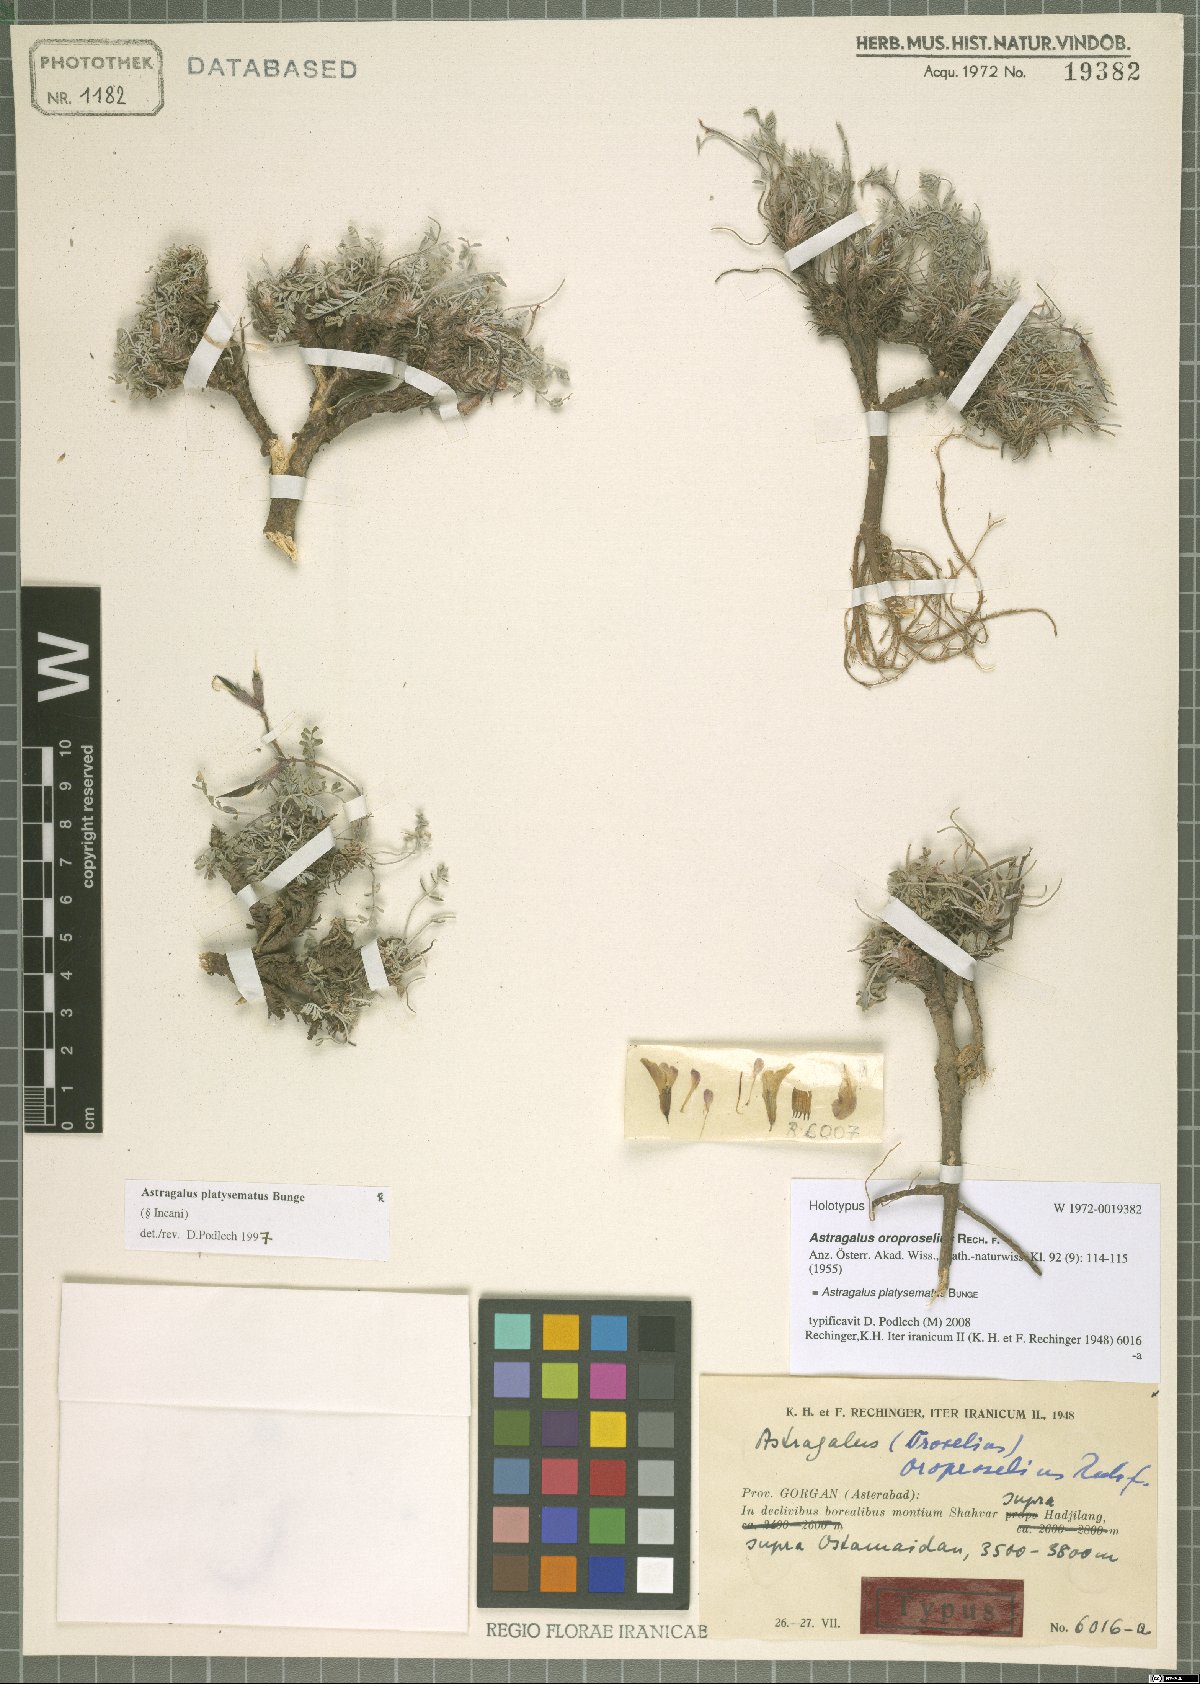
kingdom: Plantae
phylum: Tracheophyta
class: Magnoliopsida
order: Fabales
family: Fabaceae
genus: Astragalus
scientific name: Astragalus platysematus
